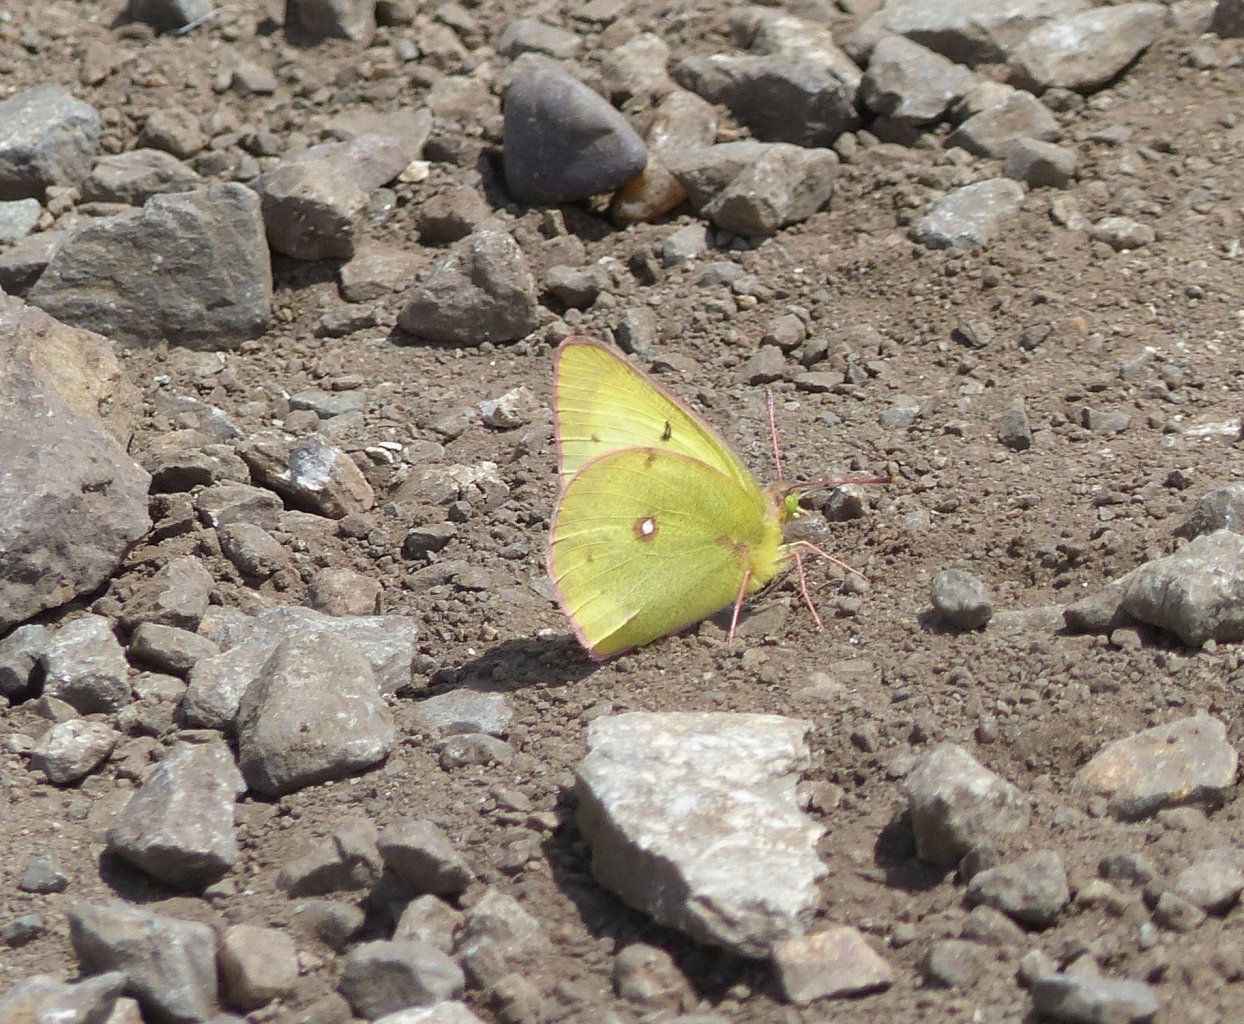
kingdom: Animalia
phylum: Arthropoda
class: Insecta
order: Lepidoptera
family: Pieridae
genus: Colias
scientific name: Colias philodice
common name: Clouded Sulphur
